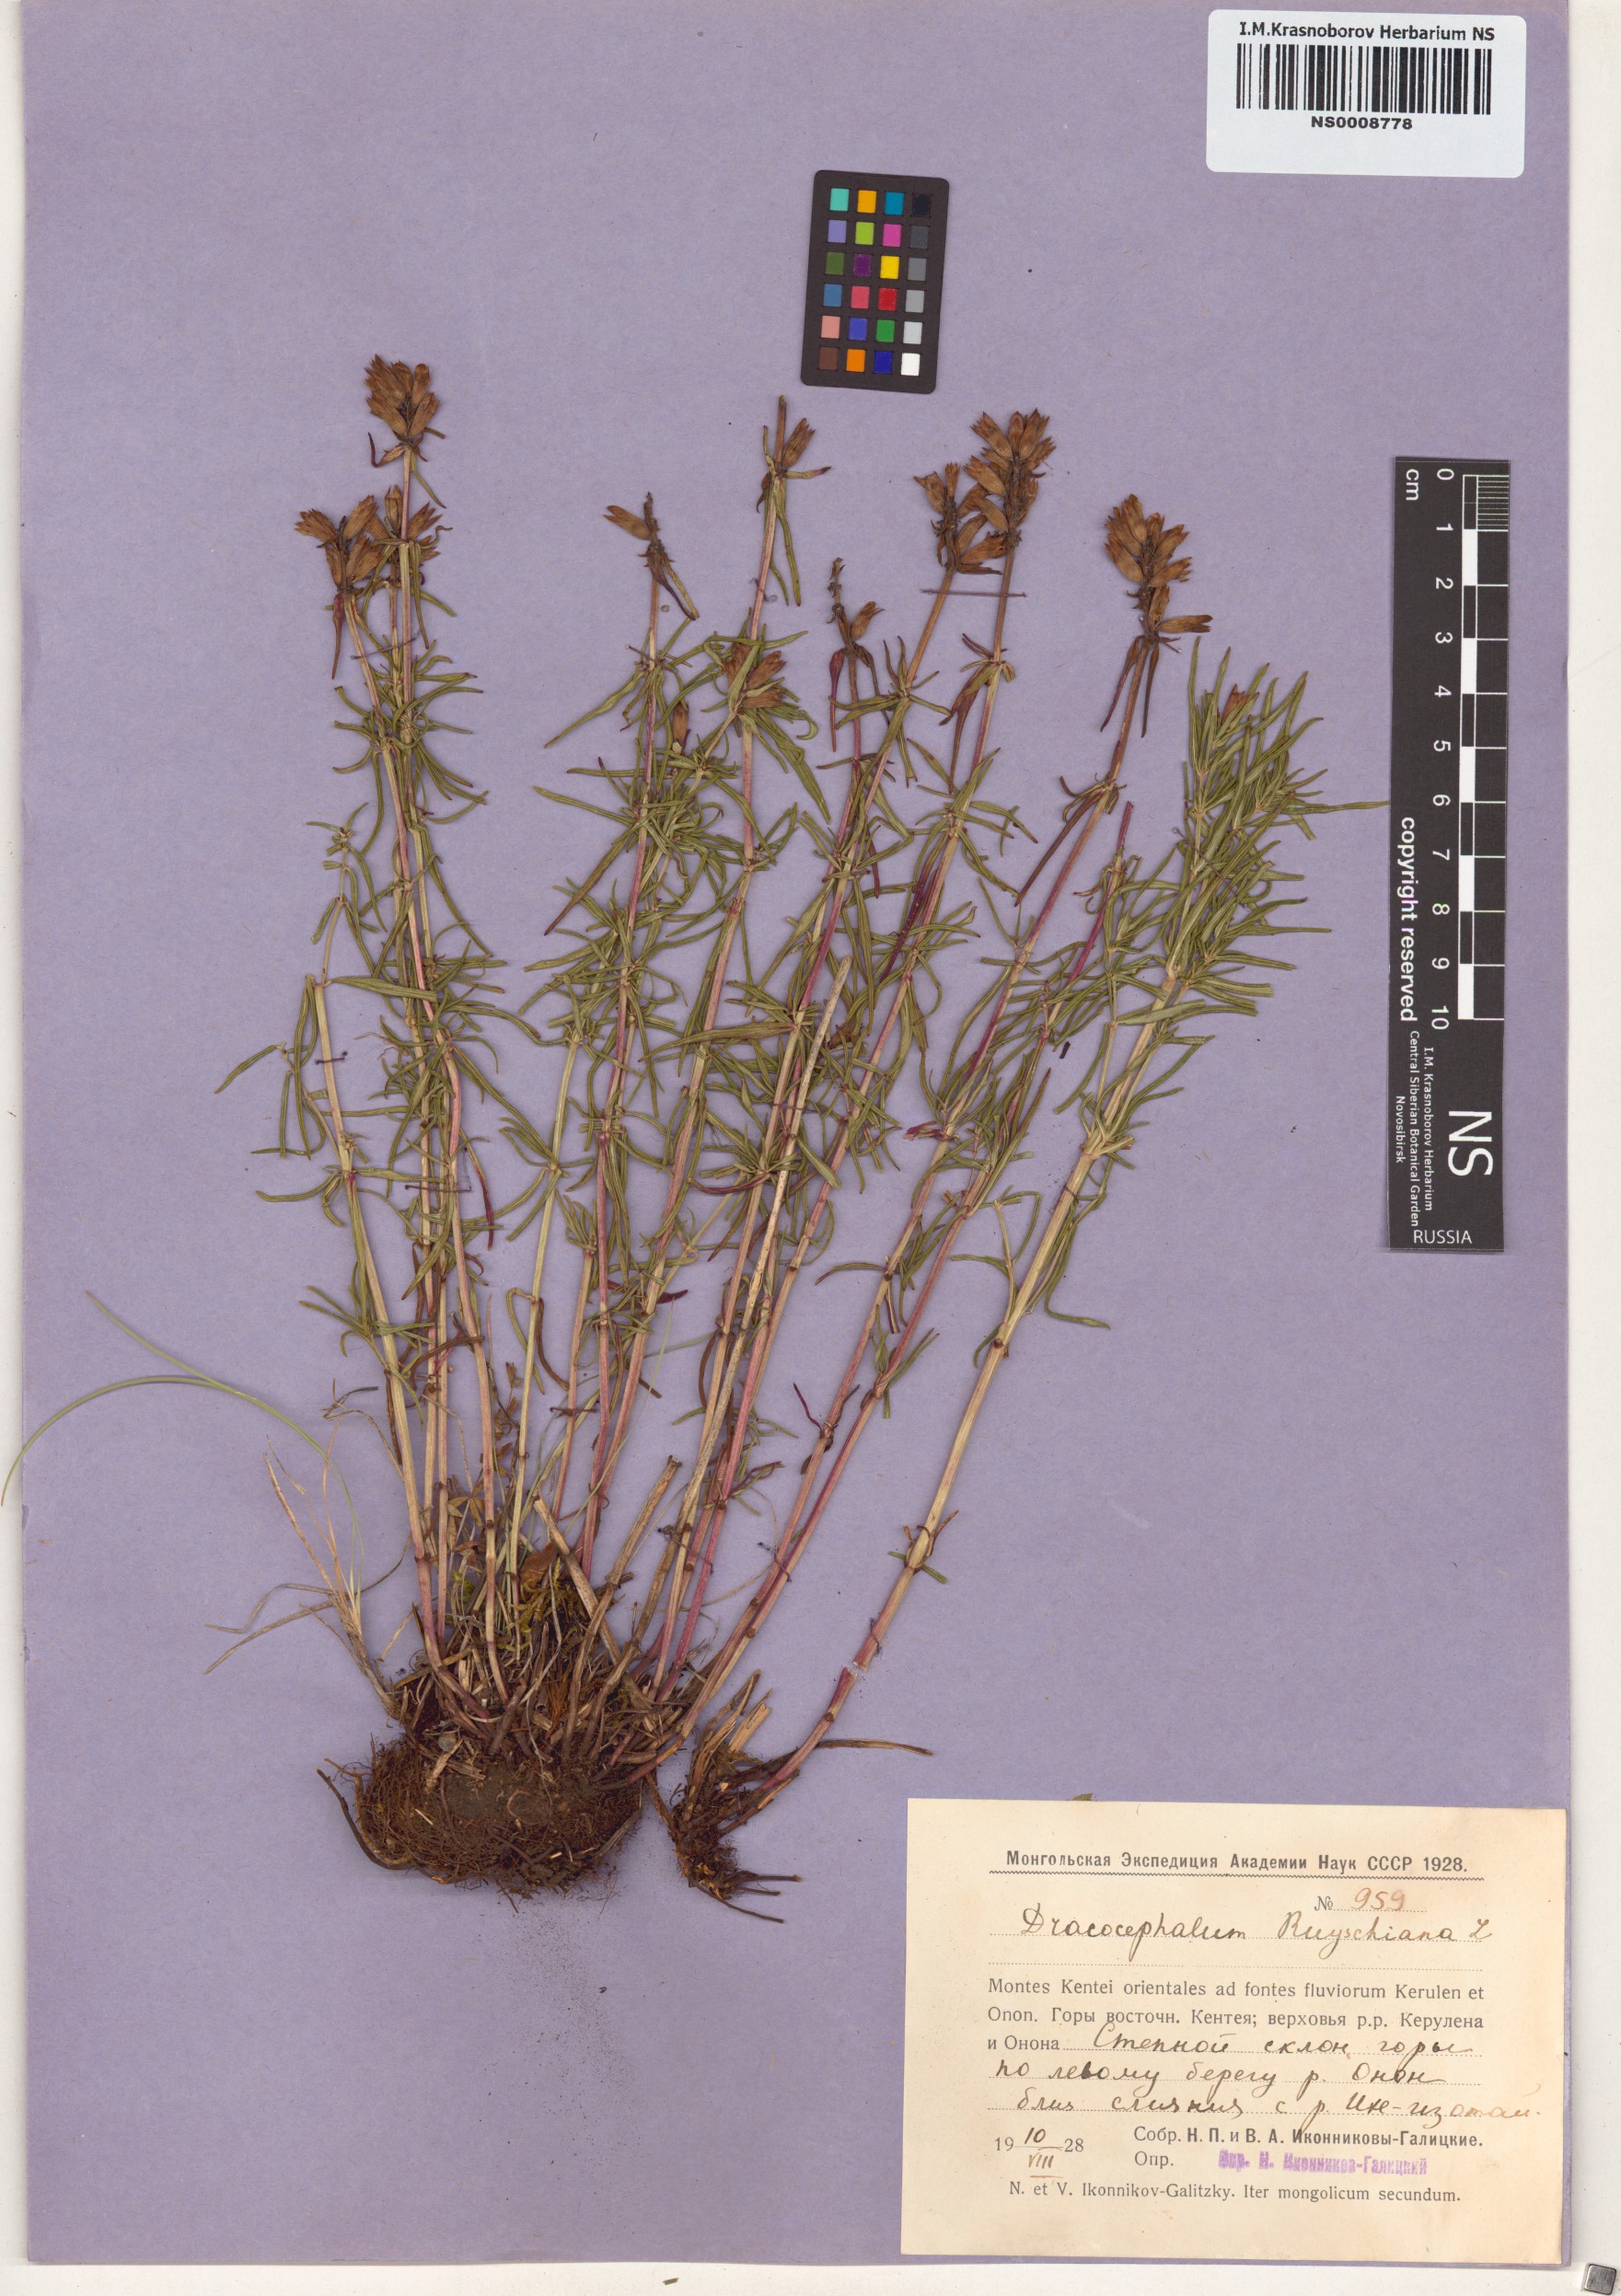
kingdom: Plantae
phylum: Tracheophyta
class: Magnoliopsida
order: Lamiales
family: Lamiaceae
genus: Dracocephalum
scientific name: Dracocephalum ruyschiana
